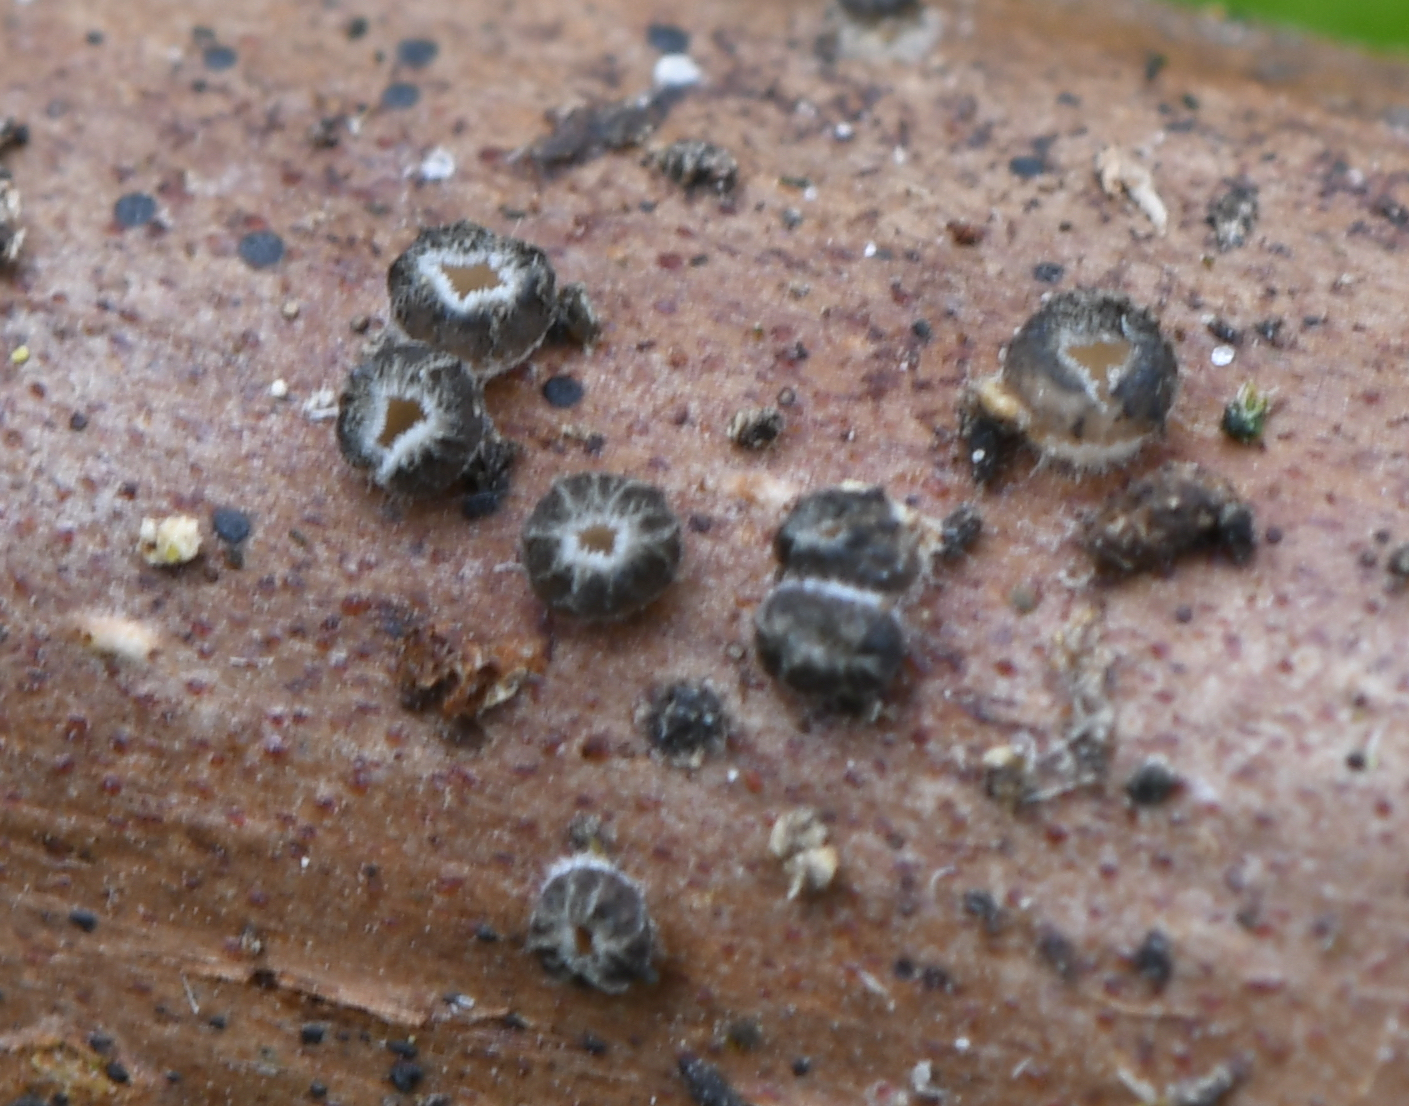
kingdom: Fungi
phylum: Ascomycota
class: Leotiomycetes
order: Helotiales
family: Ploettnerulaceae
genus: Pyrenopeziza
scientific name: Pyrenopeziza rubi
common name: hindbær-kerneskive
